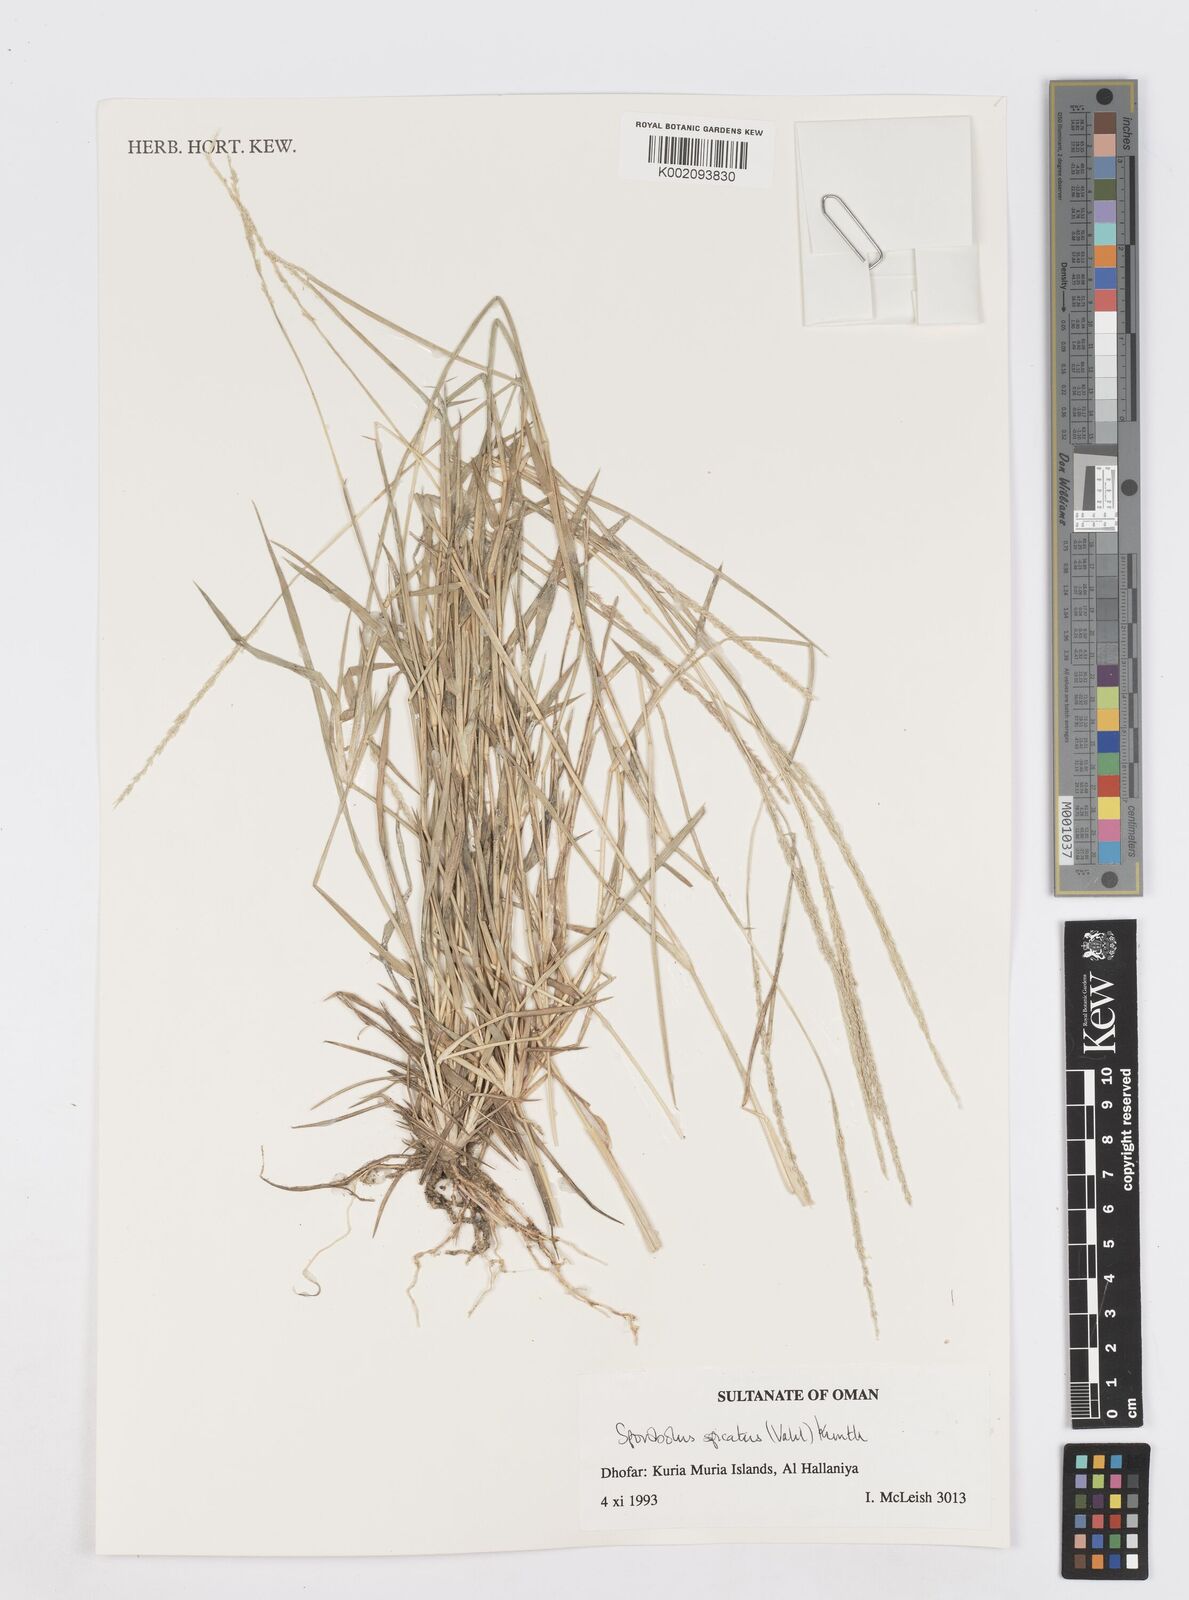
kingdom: Plantae
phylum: Tracheophyta
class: Liliopsida
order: Poales
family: Poaceae
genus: Sporobolus
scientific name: Sporobolus spicatus
